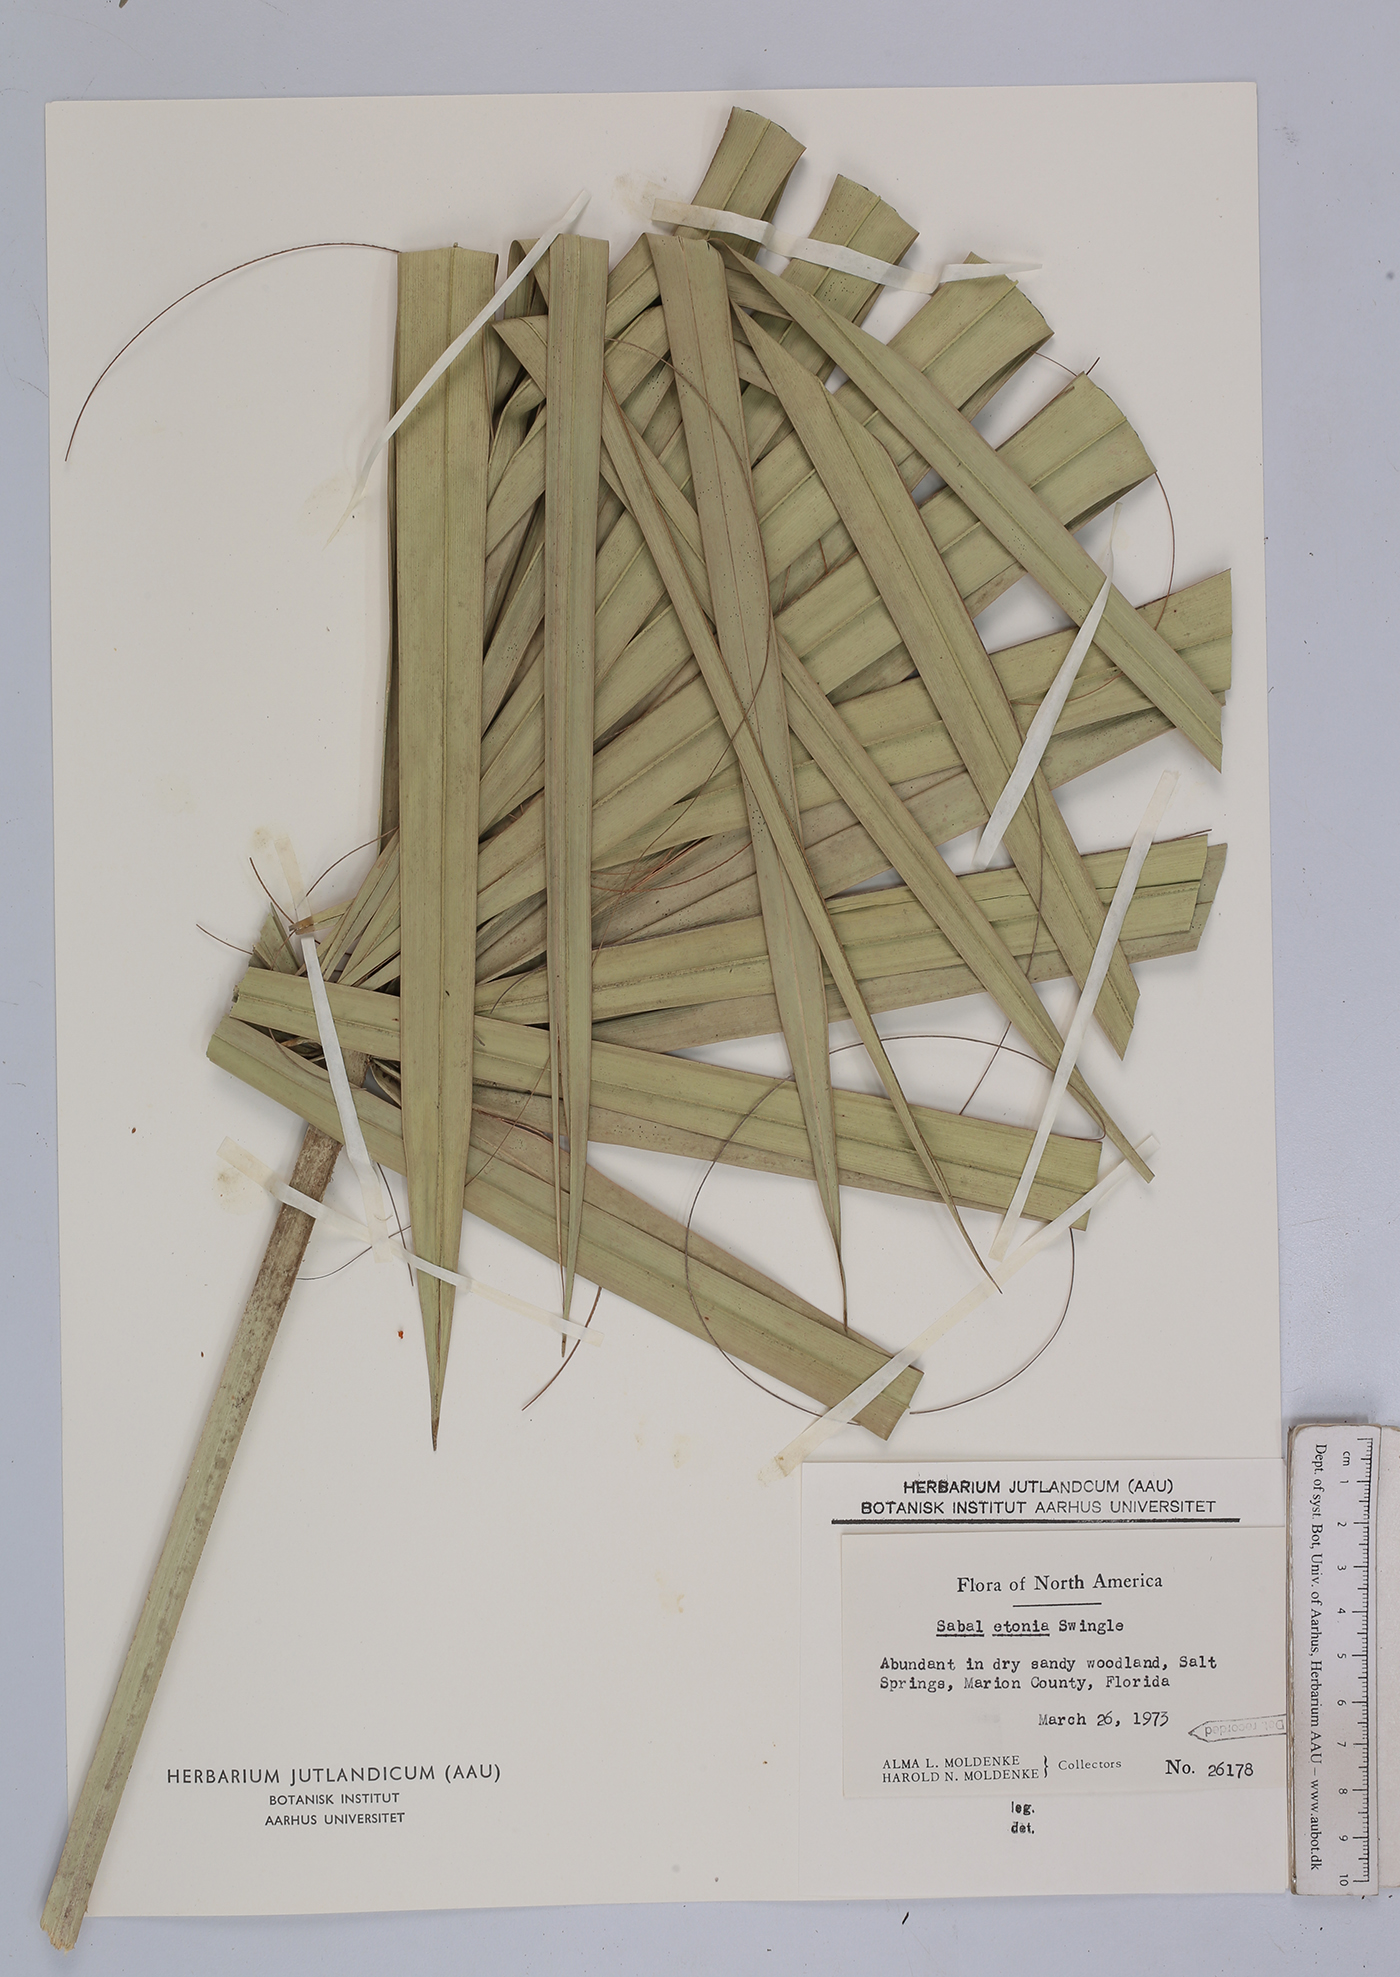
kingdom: Plantae
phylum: Tracheophyta
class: Liliopsida
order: Arecales
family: Arecaceae
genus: Sabal
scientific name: Sabal etonia
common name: Dwarf palmetto
